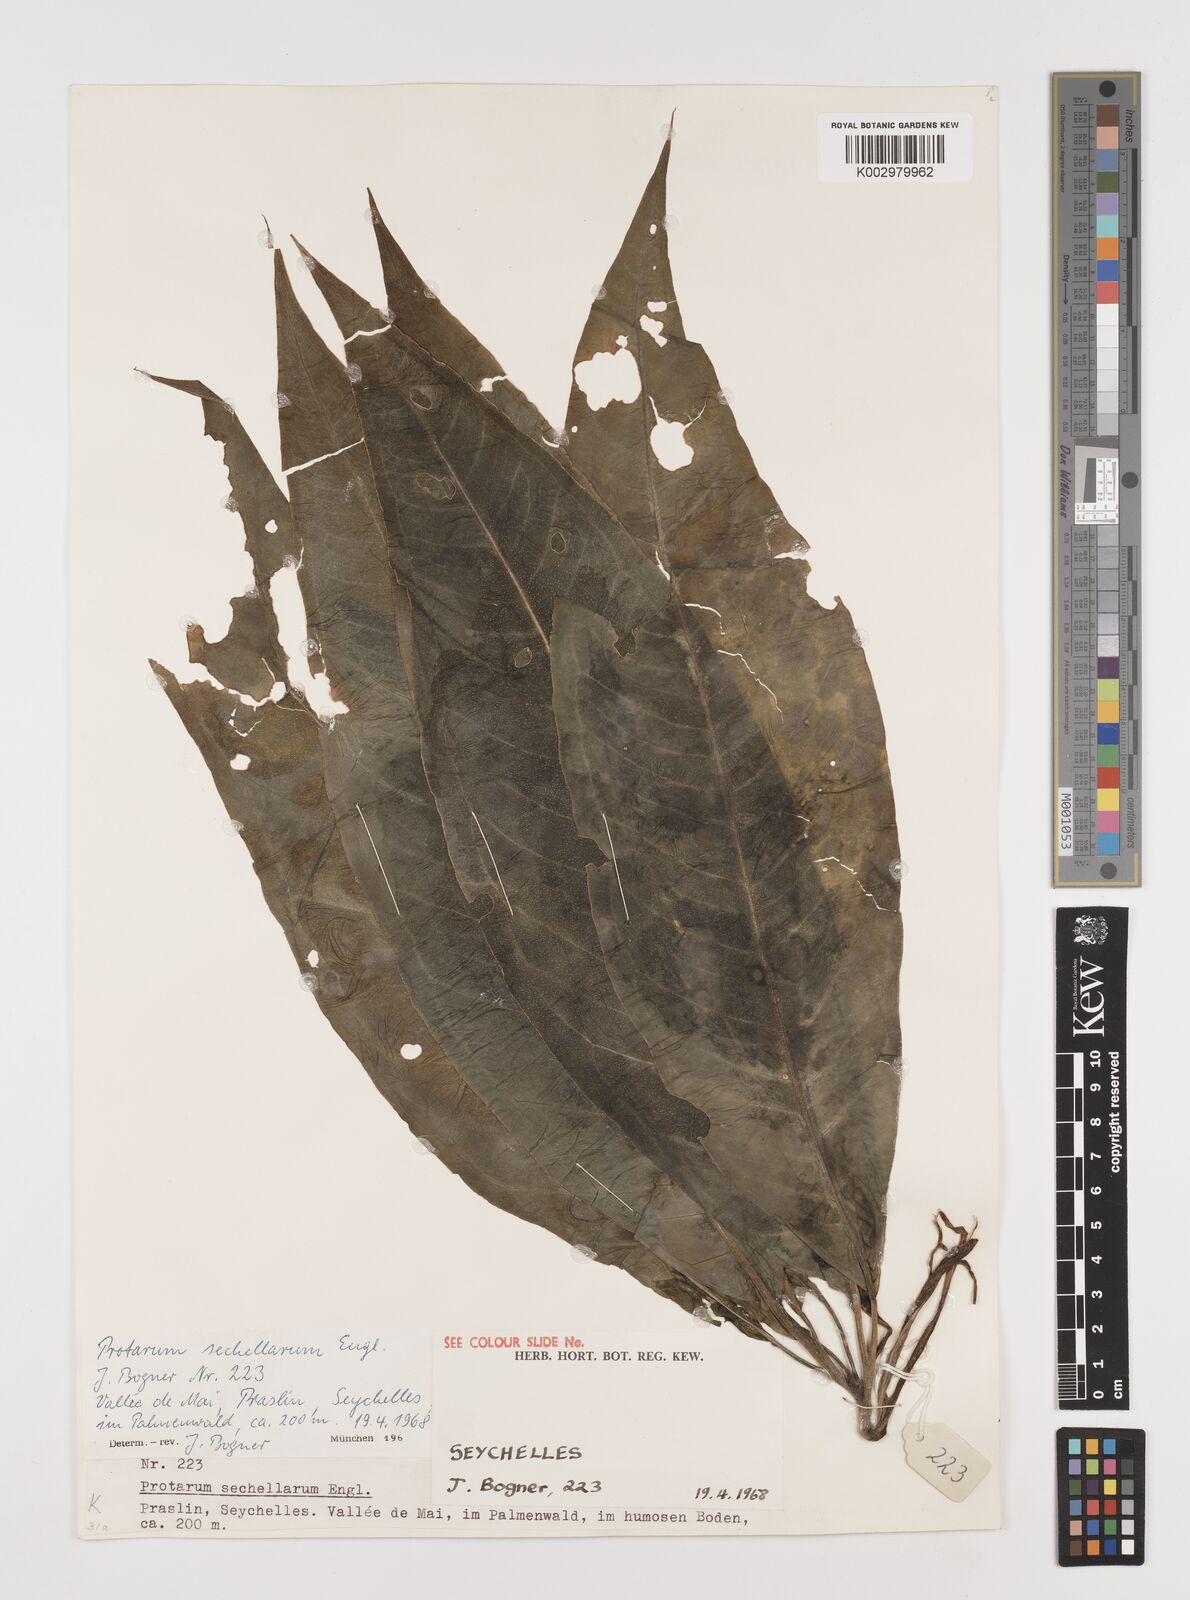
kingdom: Plantae
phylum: Tracheophyta
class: Liliopsida
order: Alismatales
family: Araceae
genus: Protarum
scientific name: Protarum sechellarum
